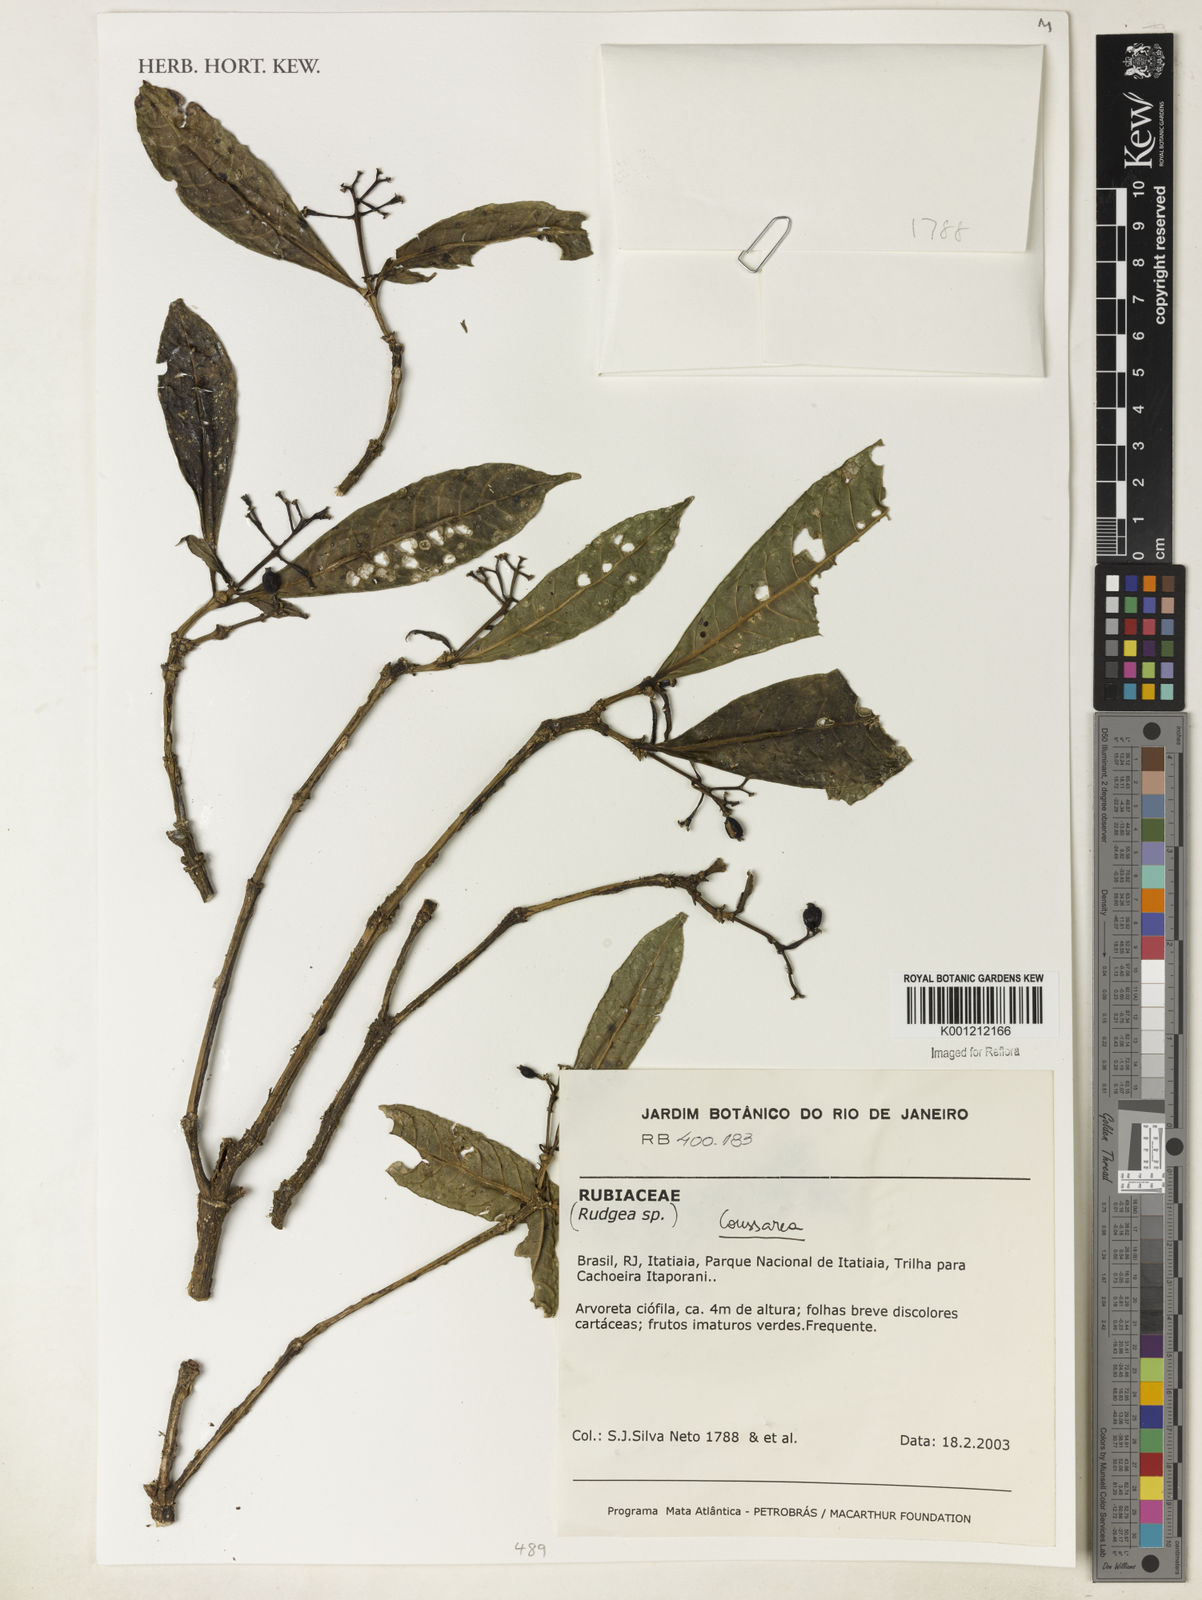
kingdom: Plantae
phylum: Tracheophyta
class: Magnoliopsida
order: Gentianales
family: Rubiaceae
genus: Coussarea
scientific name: Coussarea
